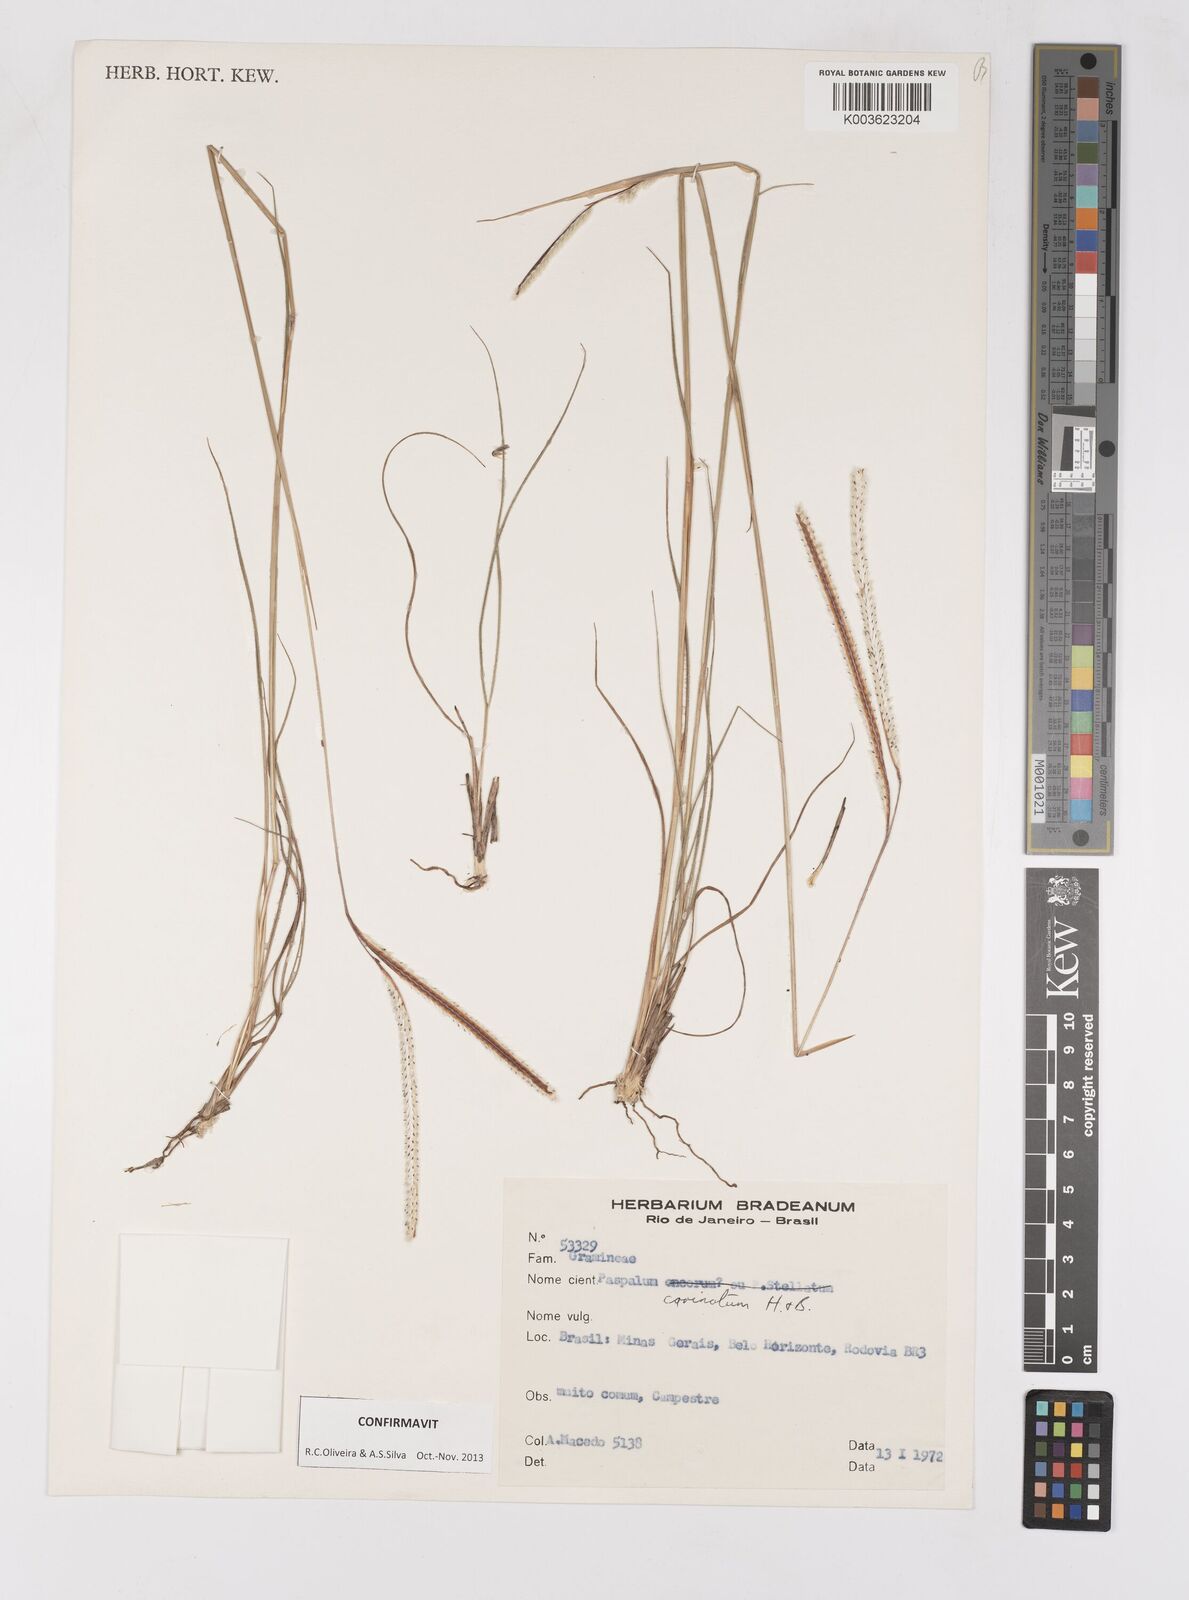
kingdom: Plantae
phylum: Tracheophyta
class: Liliopsida
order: Poales
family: Poaceae
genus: Paspalum
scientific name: Paspalum carinatum
